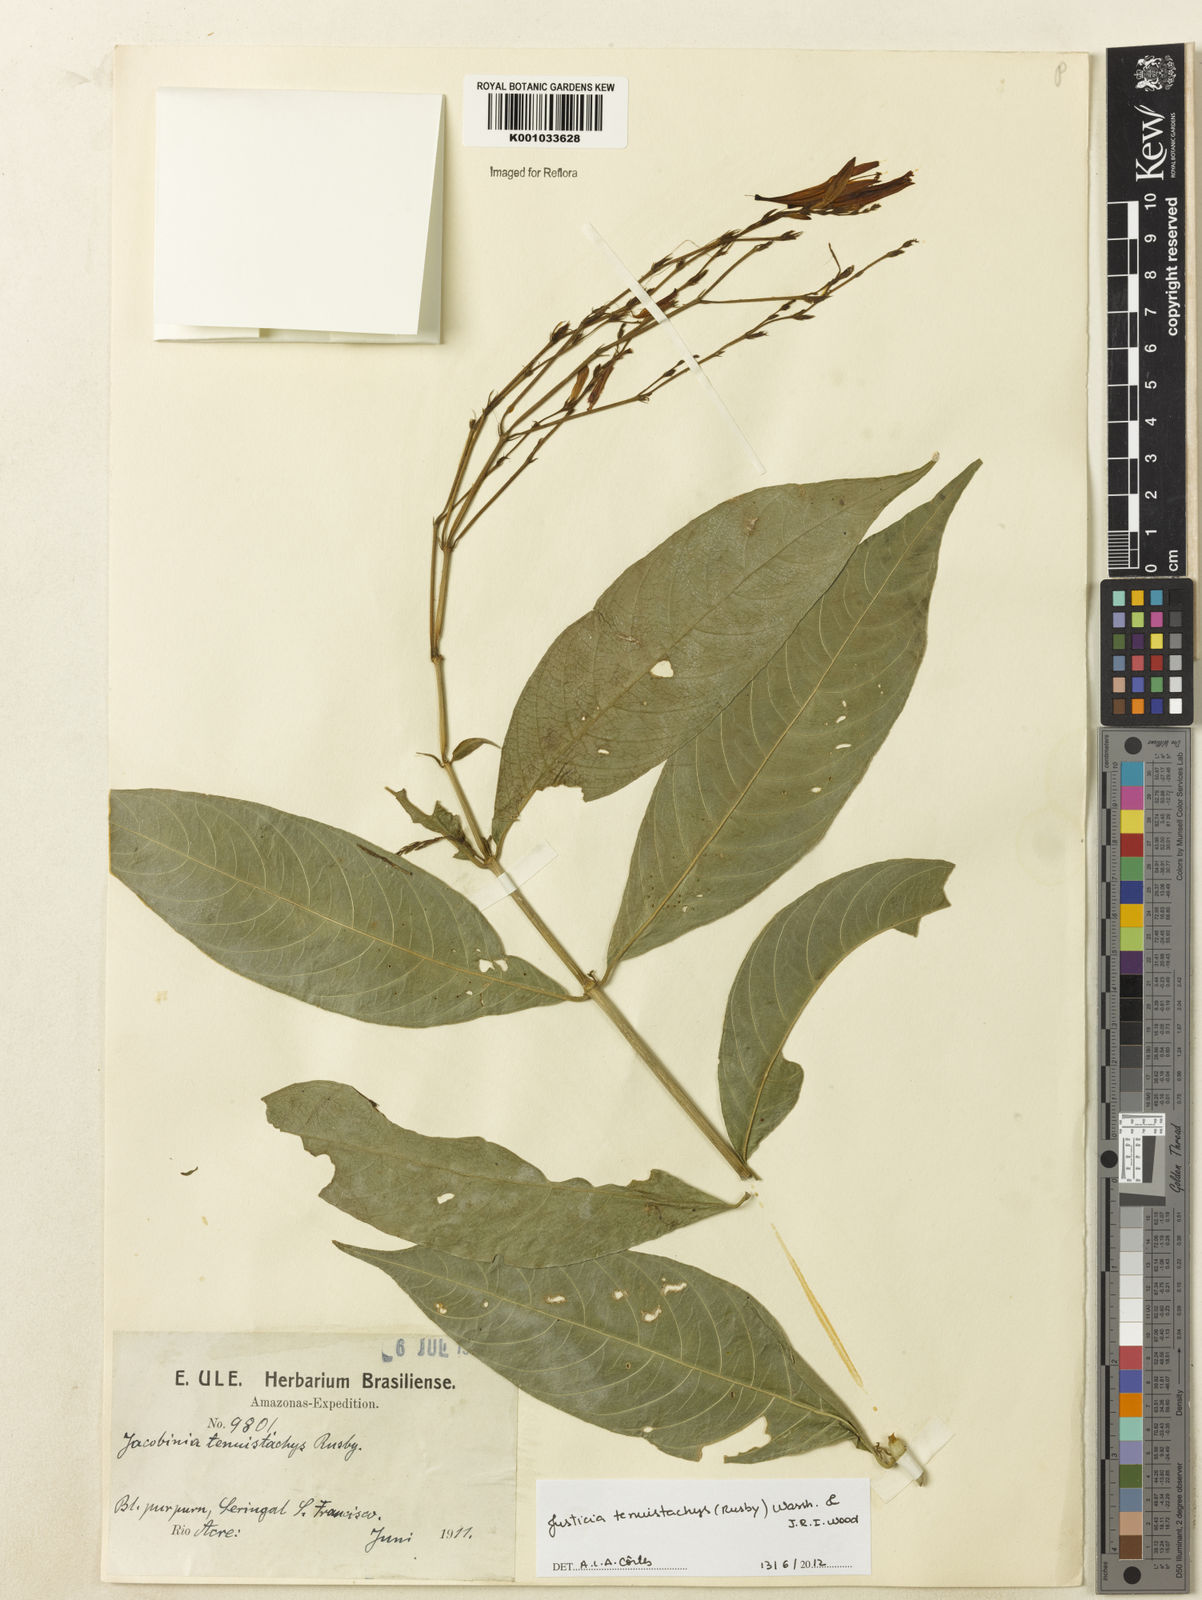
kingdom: Plantae
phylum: Tracheophyta
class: Magnoliopsida
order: Lamiales
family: Acanthaceae
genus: Justicia
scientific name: Justicia tenuistachys
